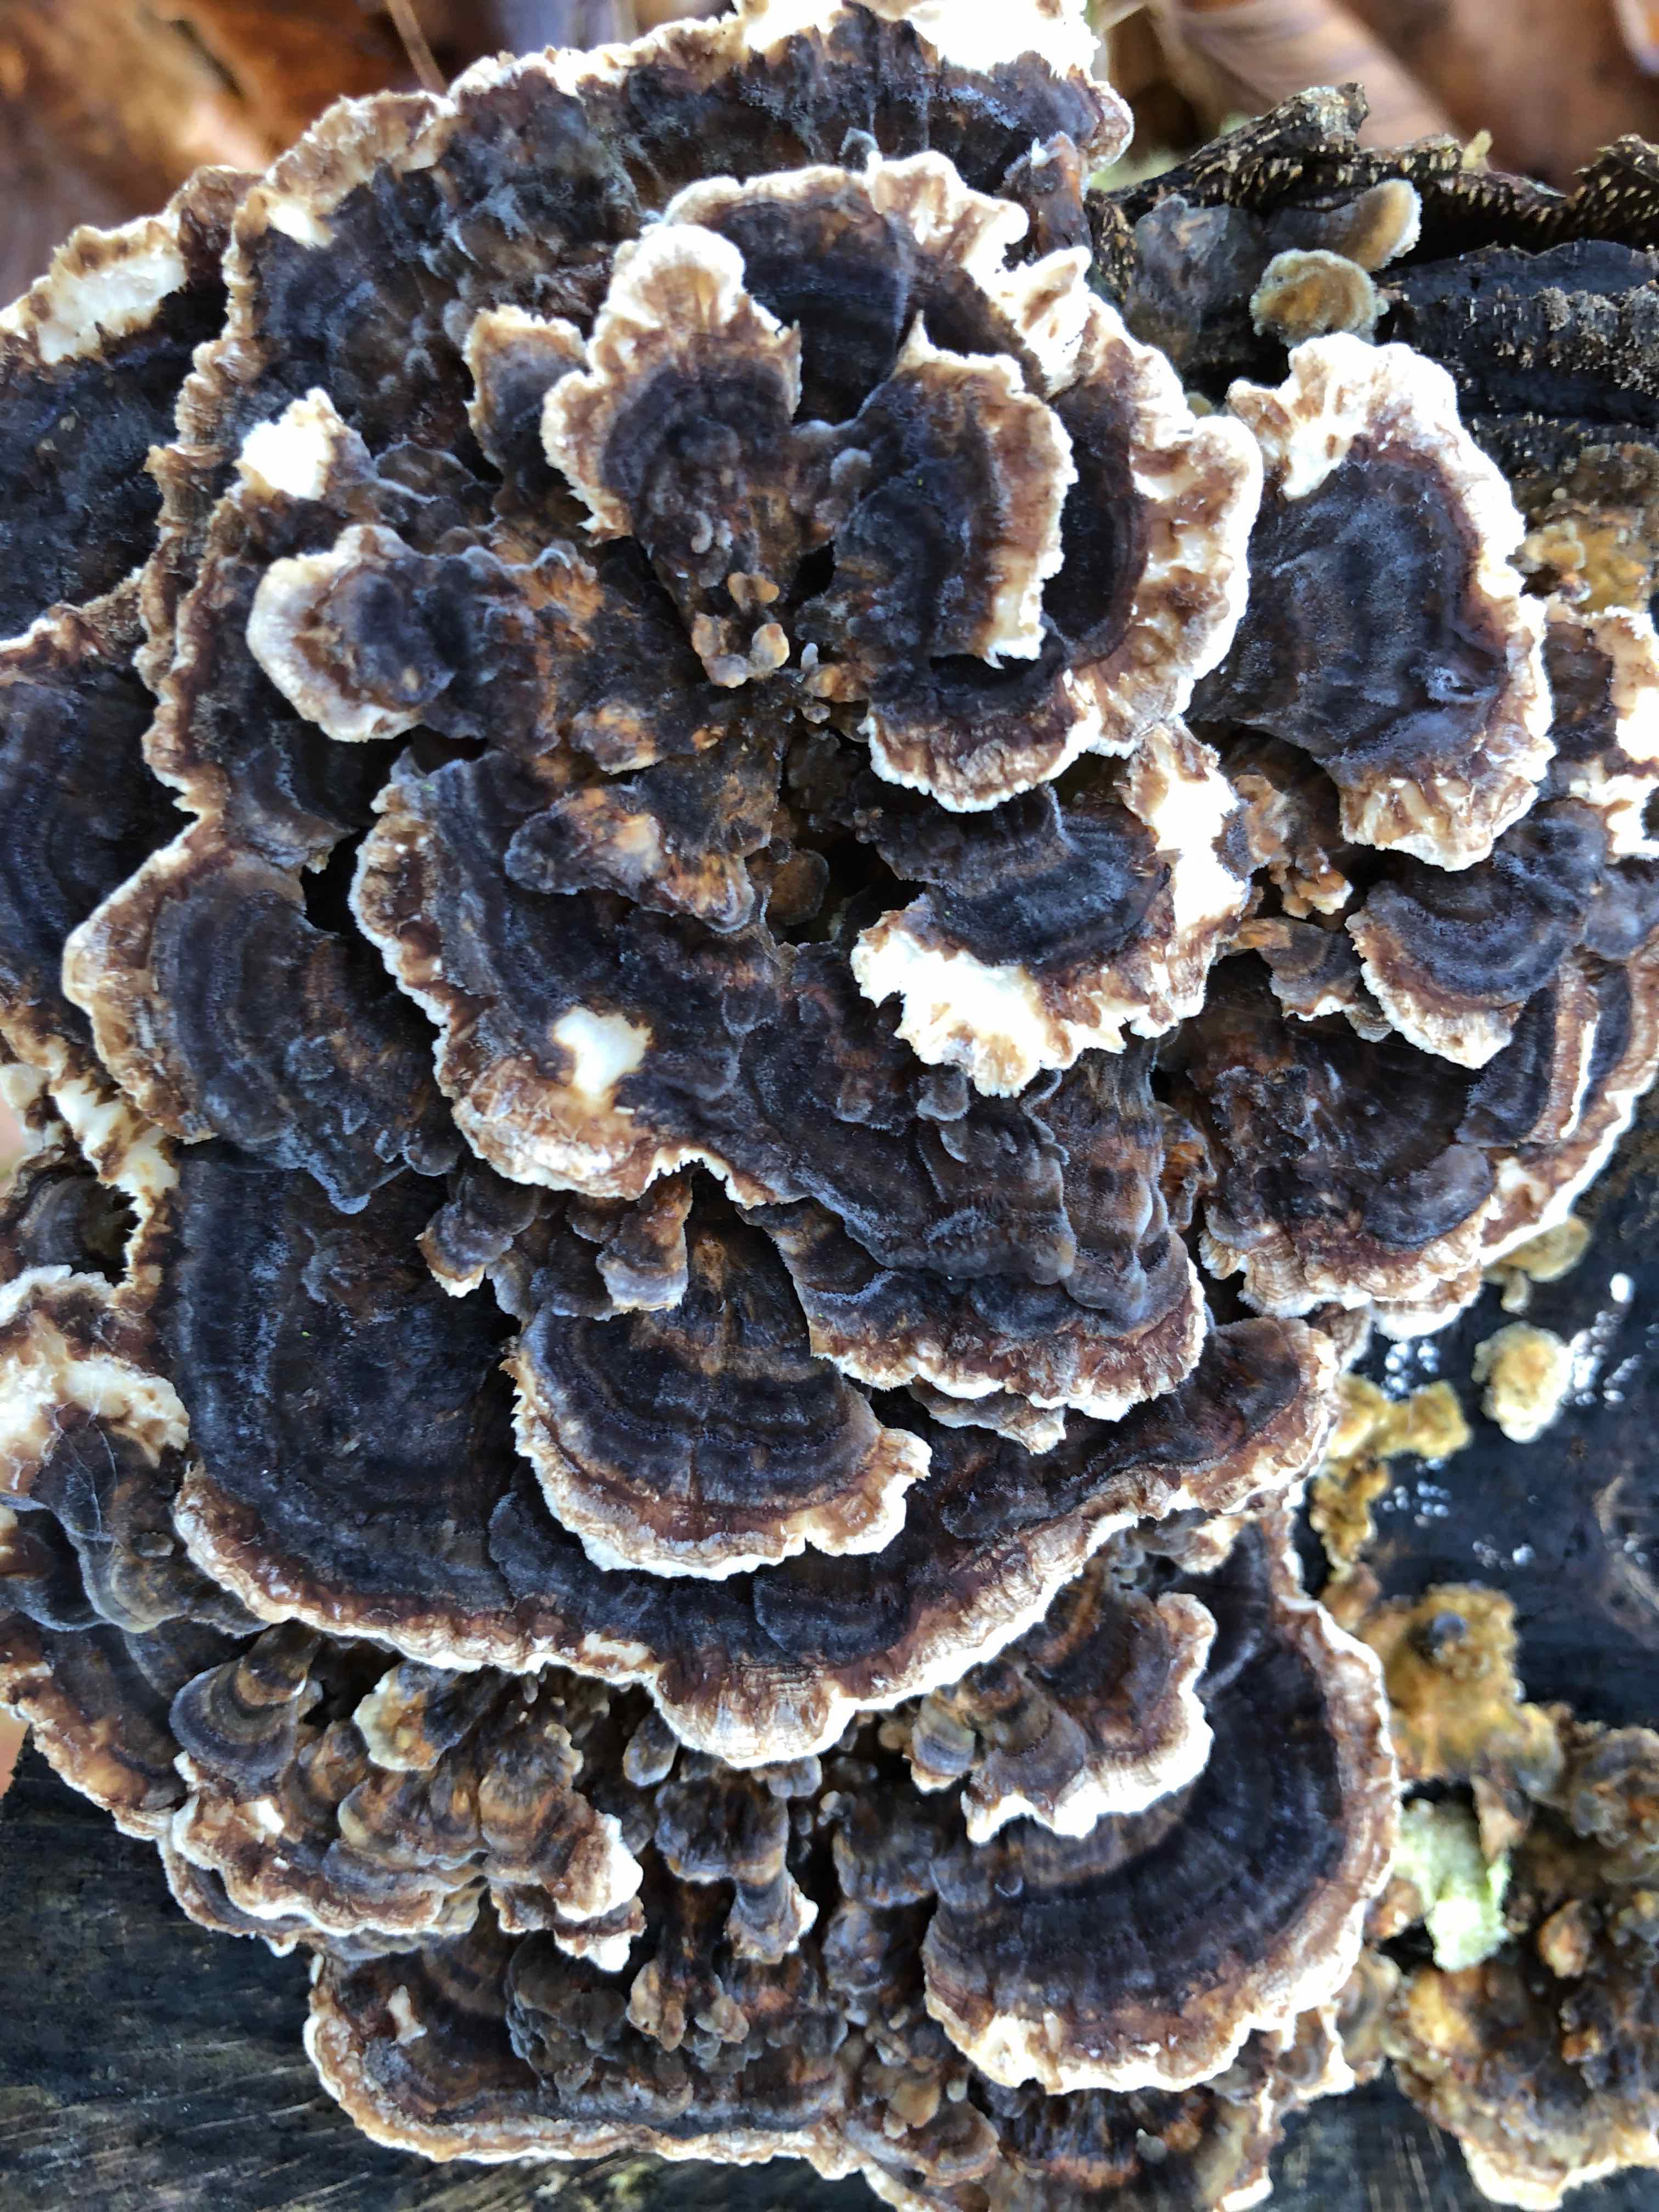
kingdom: Fungi
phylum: Basidiomycota
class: Agaricomycetes
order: Polyporales
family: Polyporaceae
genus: Trametes
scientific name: Trametes versicolor
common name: broget læderporesvamp
